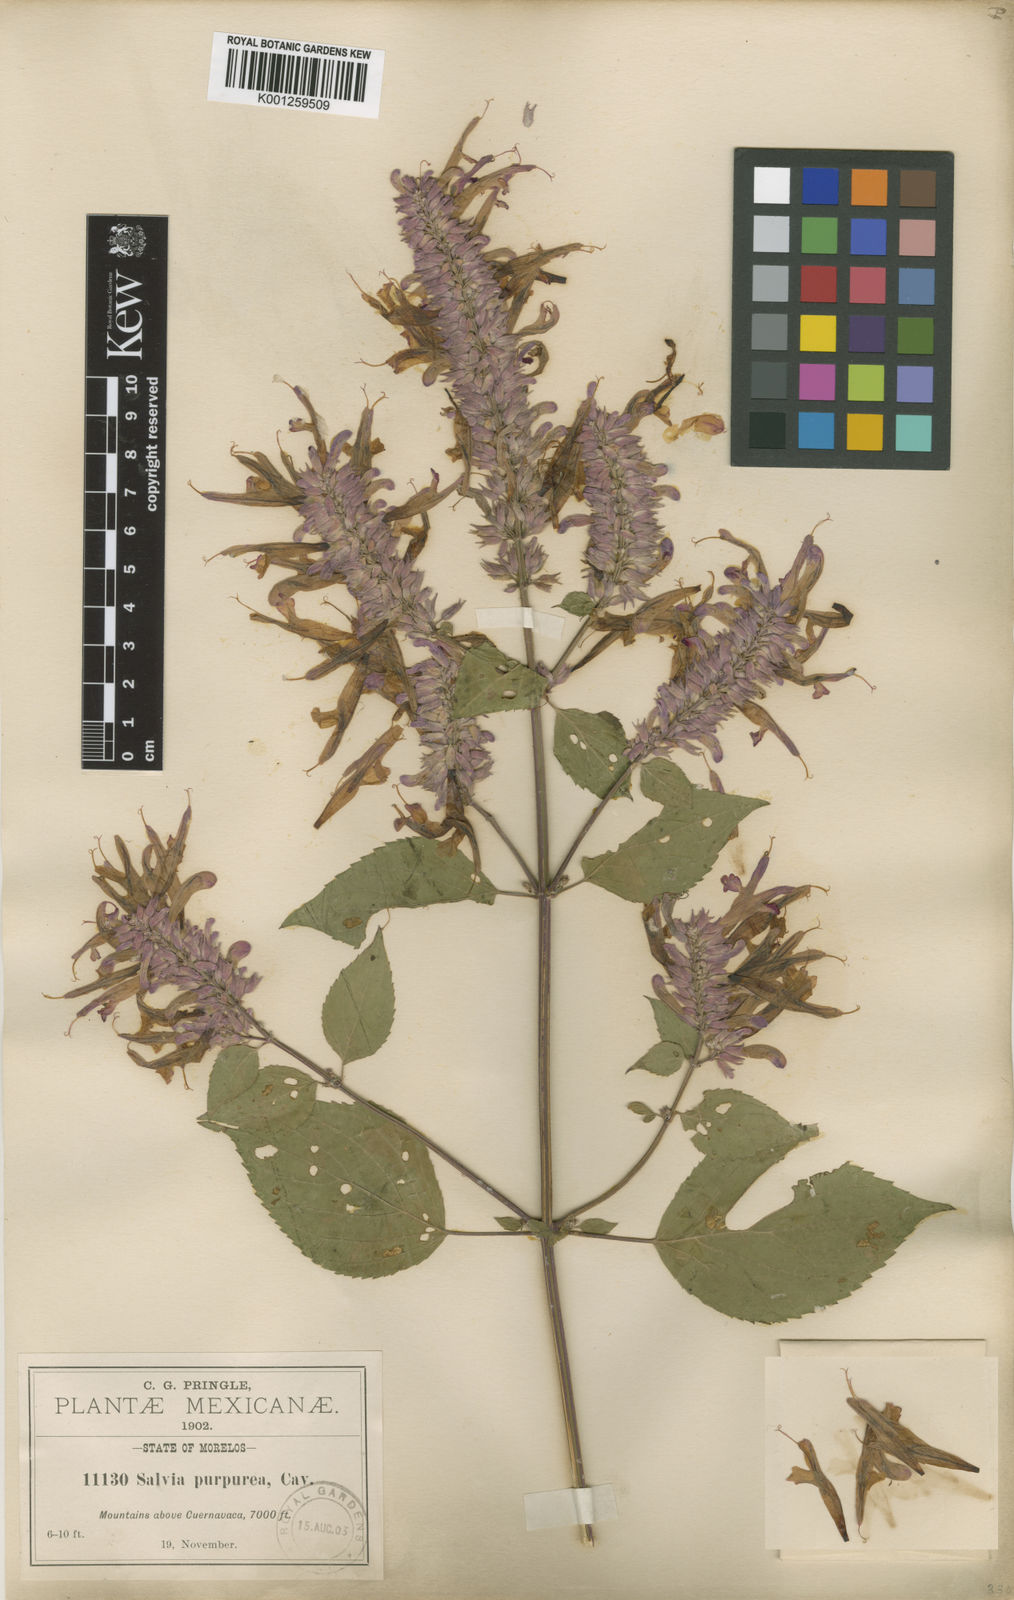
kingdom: Plantae
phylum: Tracheophyta
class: Magnoliopsida
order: Lamiales
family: Lamiaceae
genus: Salvia
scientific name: Salvia purpurea
